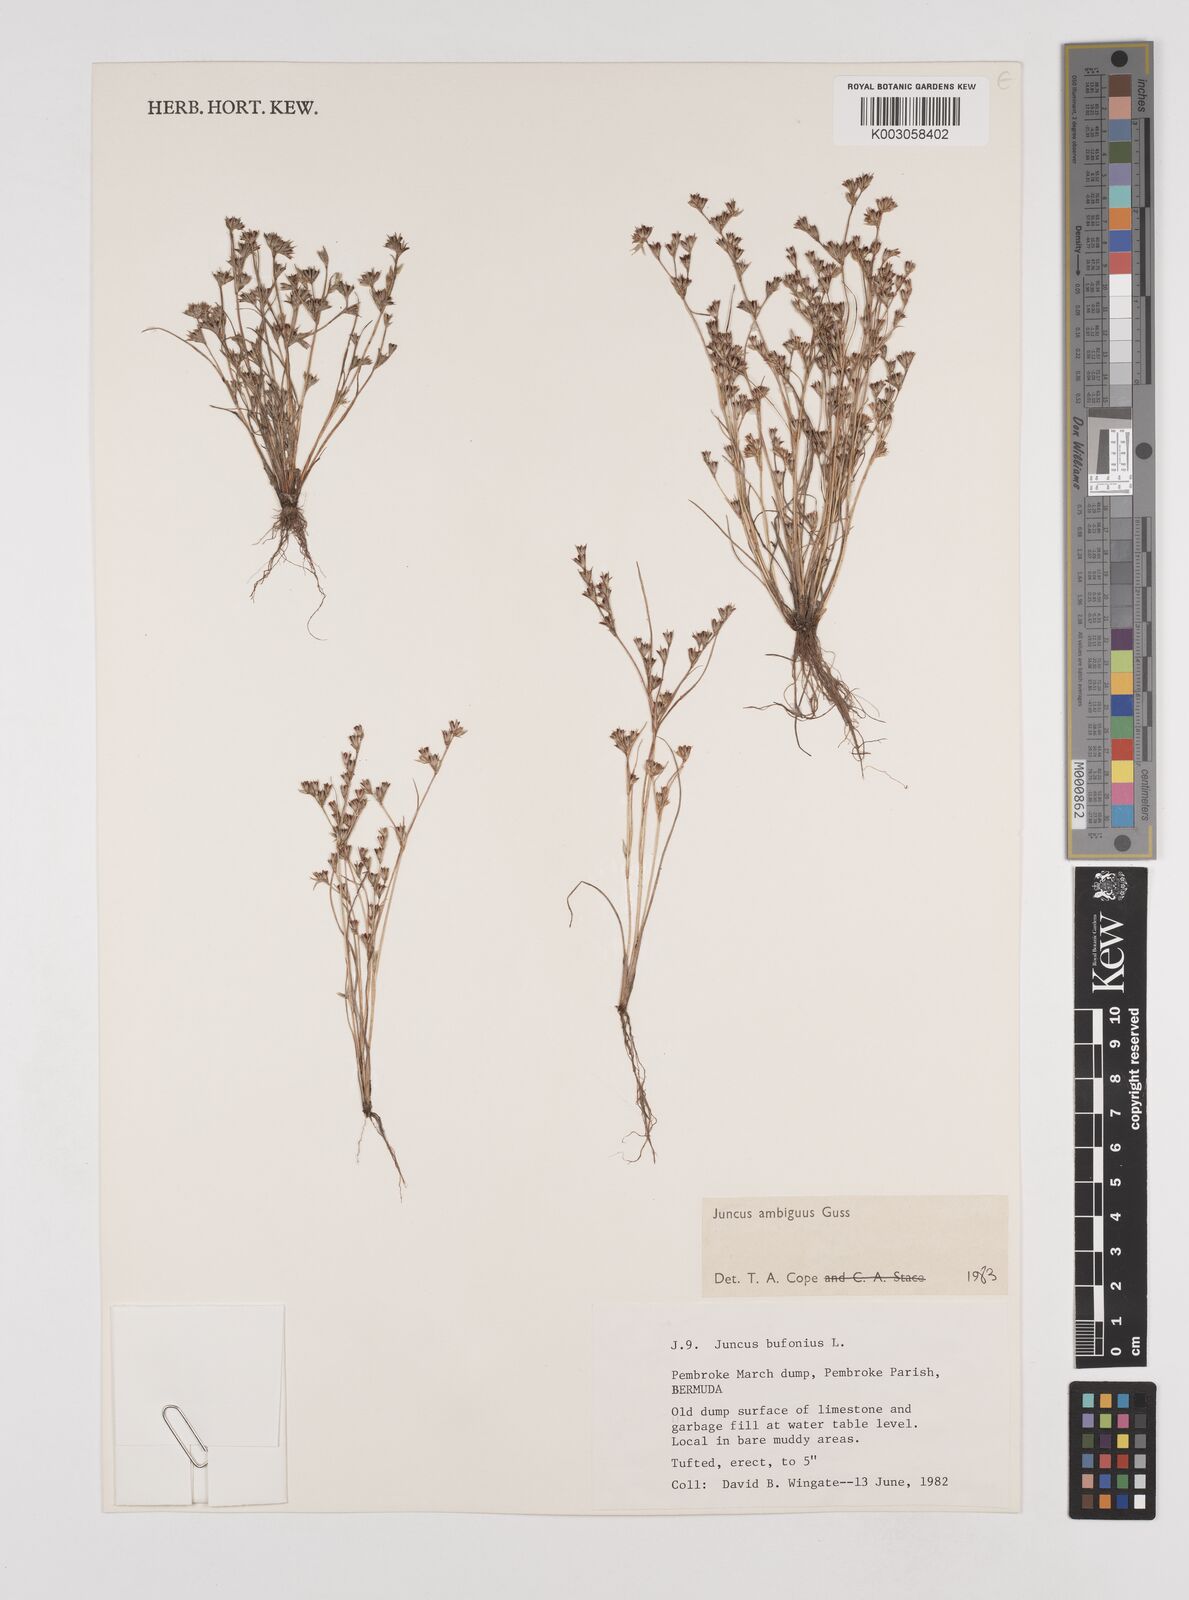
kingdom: Plantae
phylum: Tracheophyta
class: Liliopsida
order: Poales
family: Juncaceae
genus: Juncus
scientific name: Juncus hybridus
